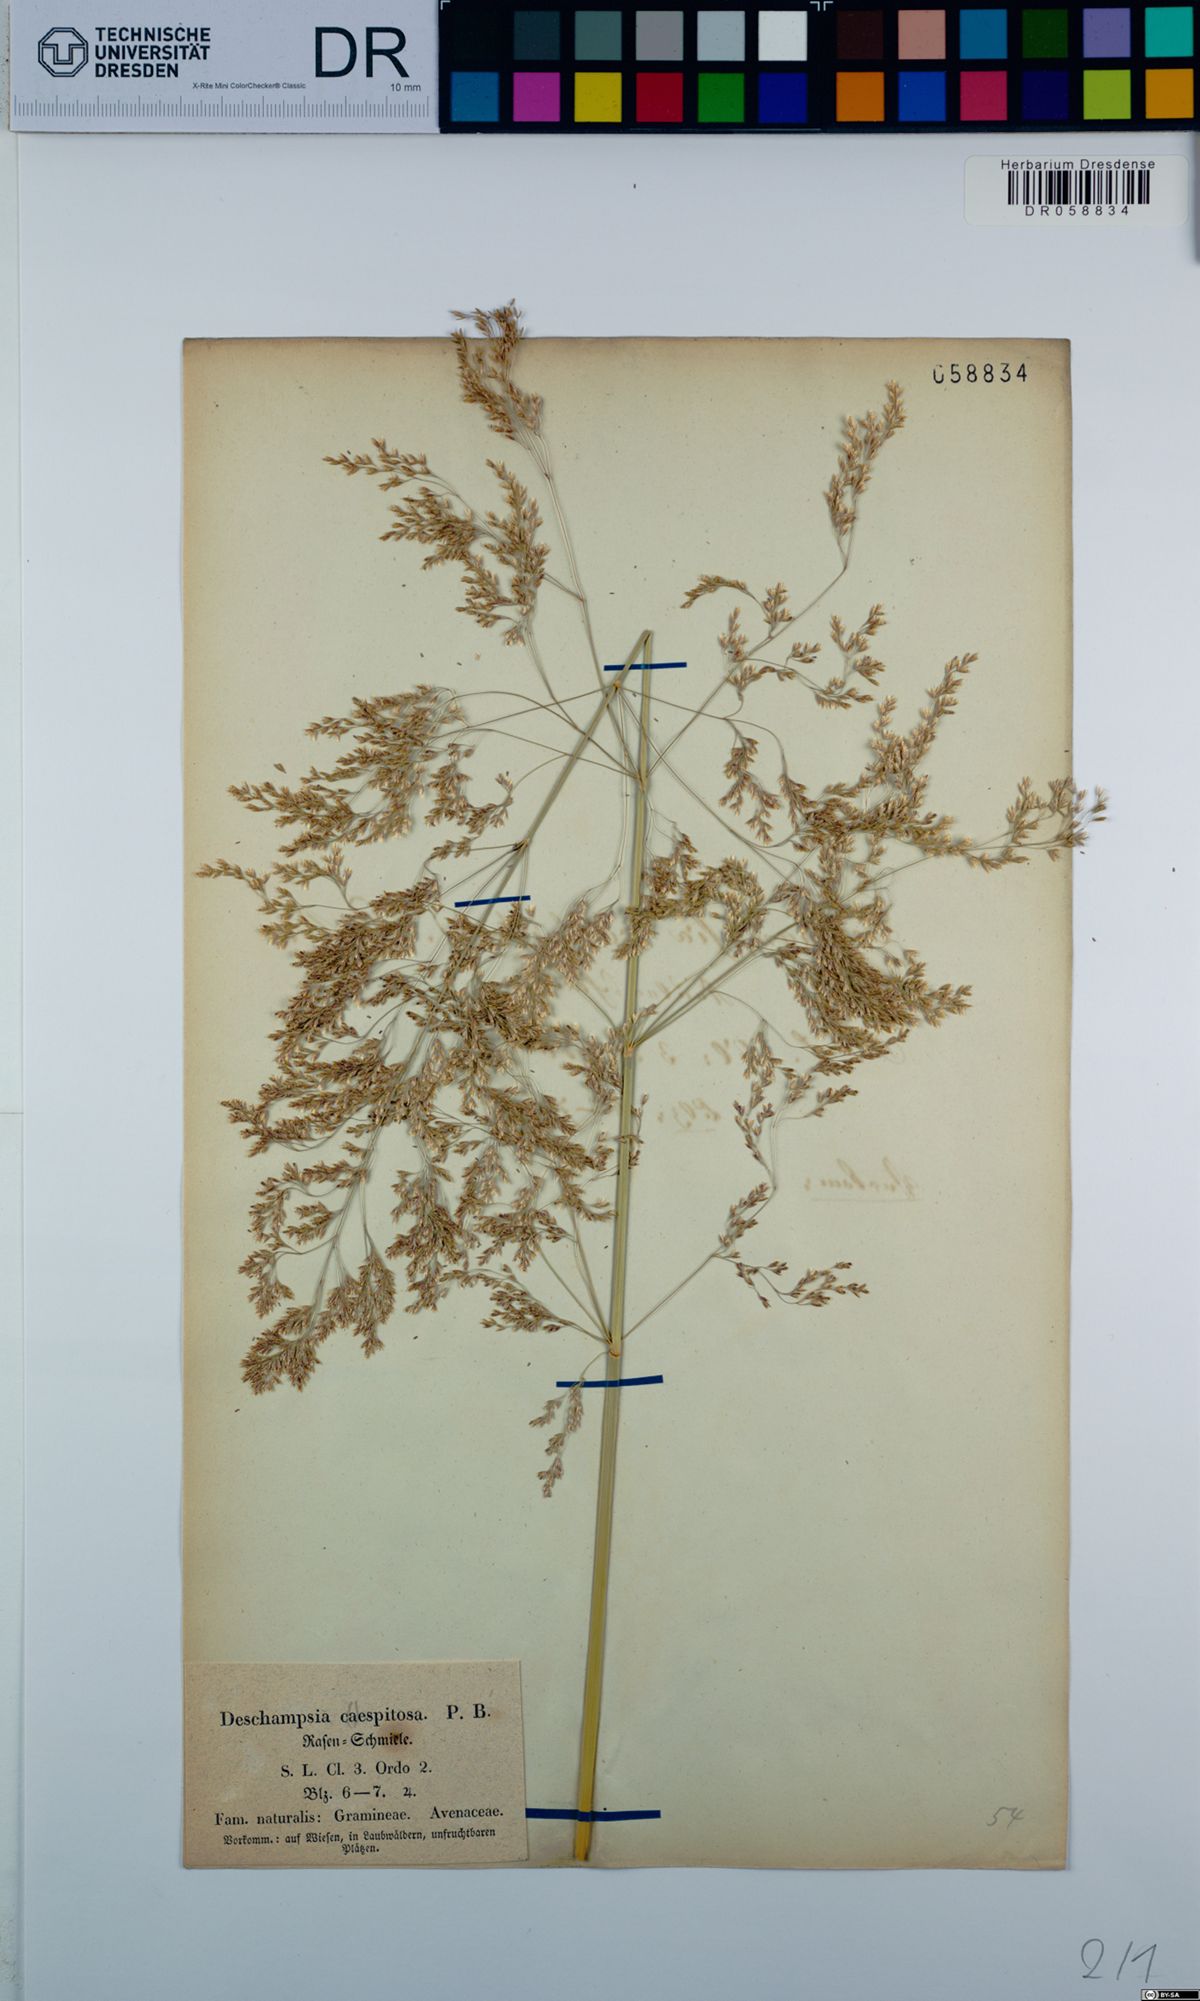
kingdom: Plantae
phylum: Tracheophyta
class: Liliopsida
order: Poales
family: Poaceae
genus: Deschampsia
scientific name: Deschampsia cespitosa
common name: Tufted hair-grass
